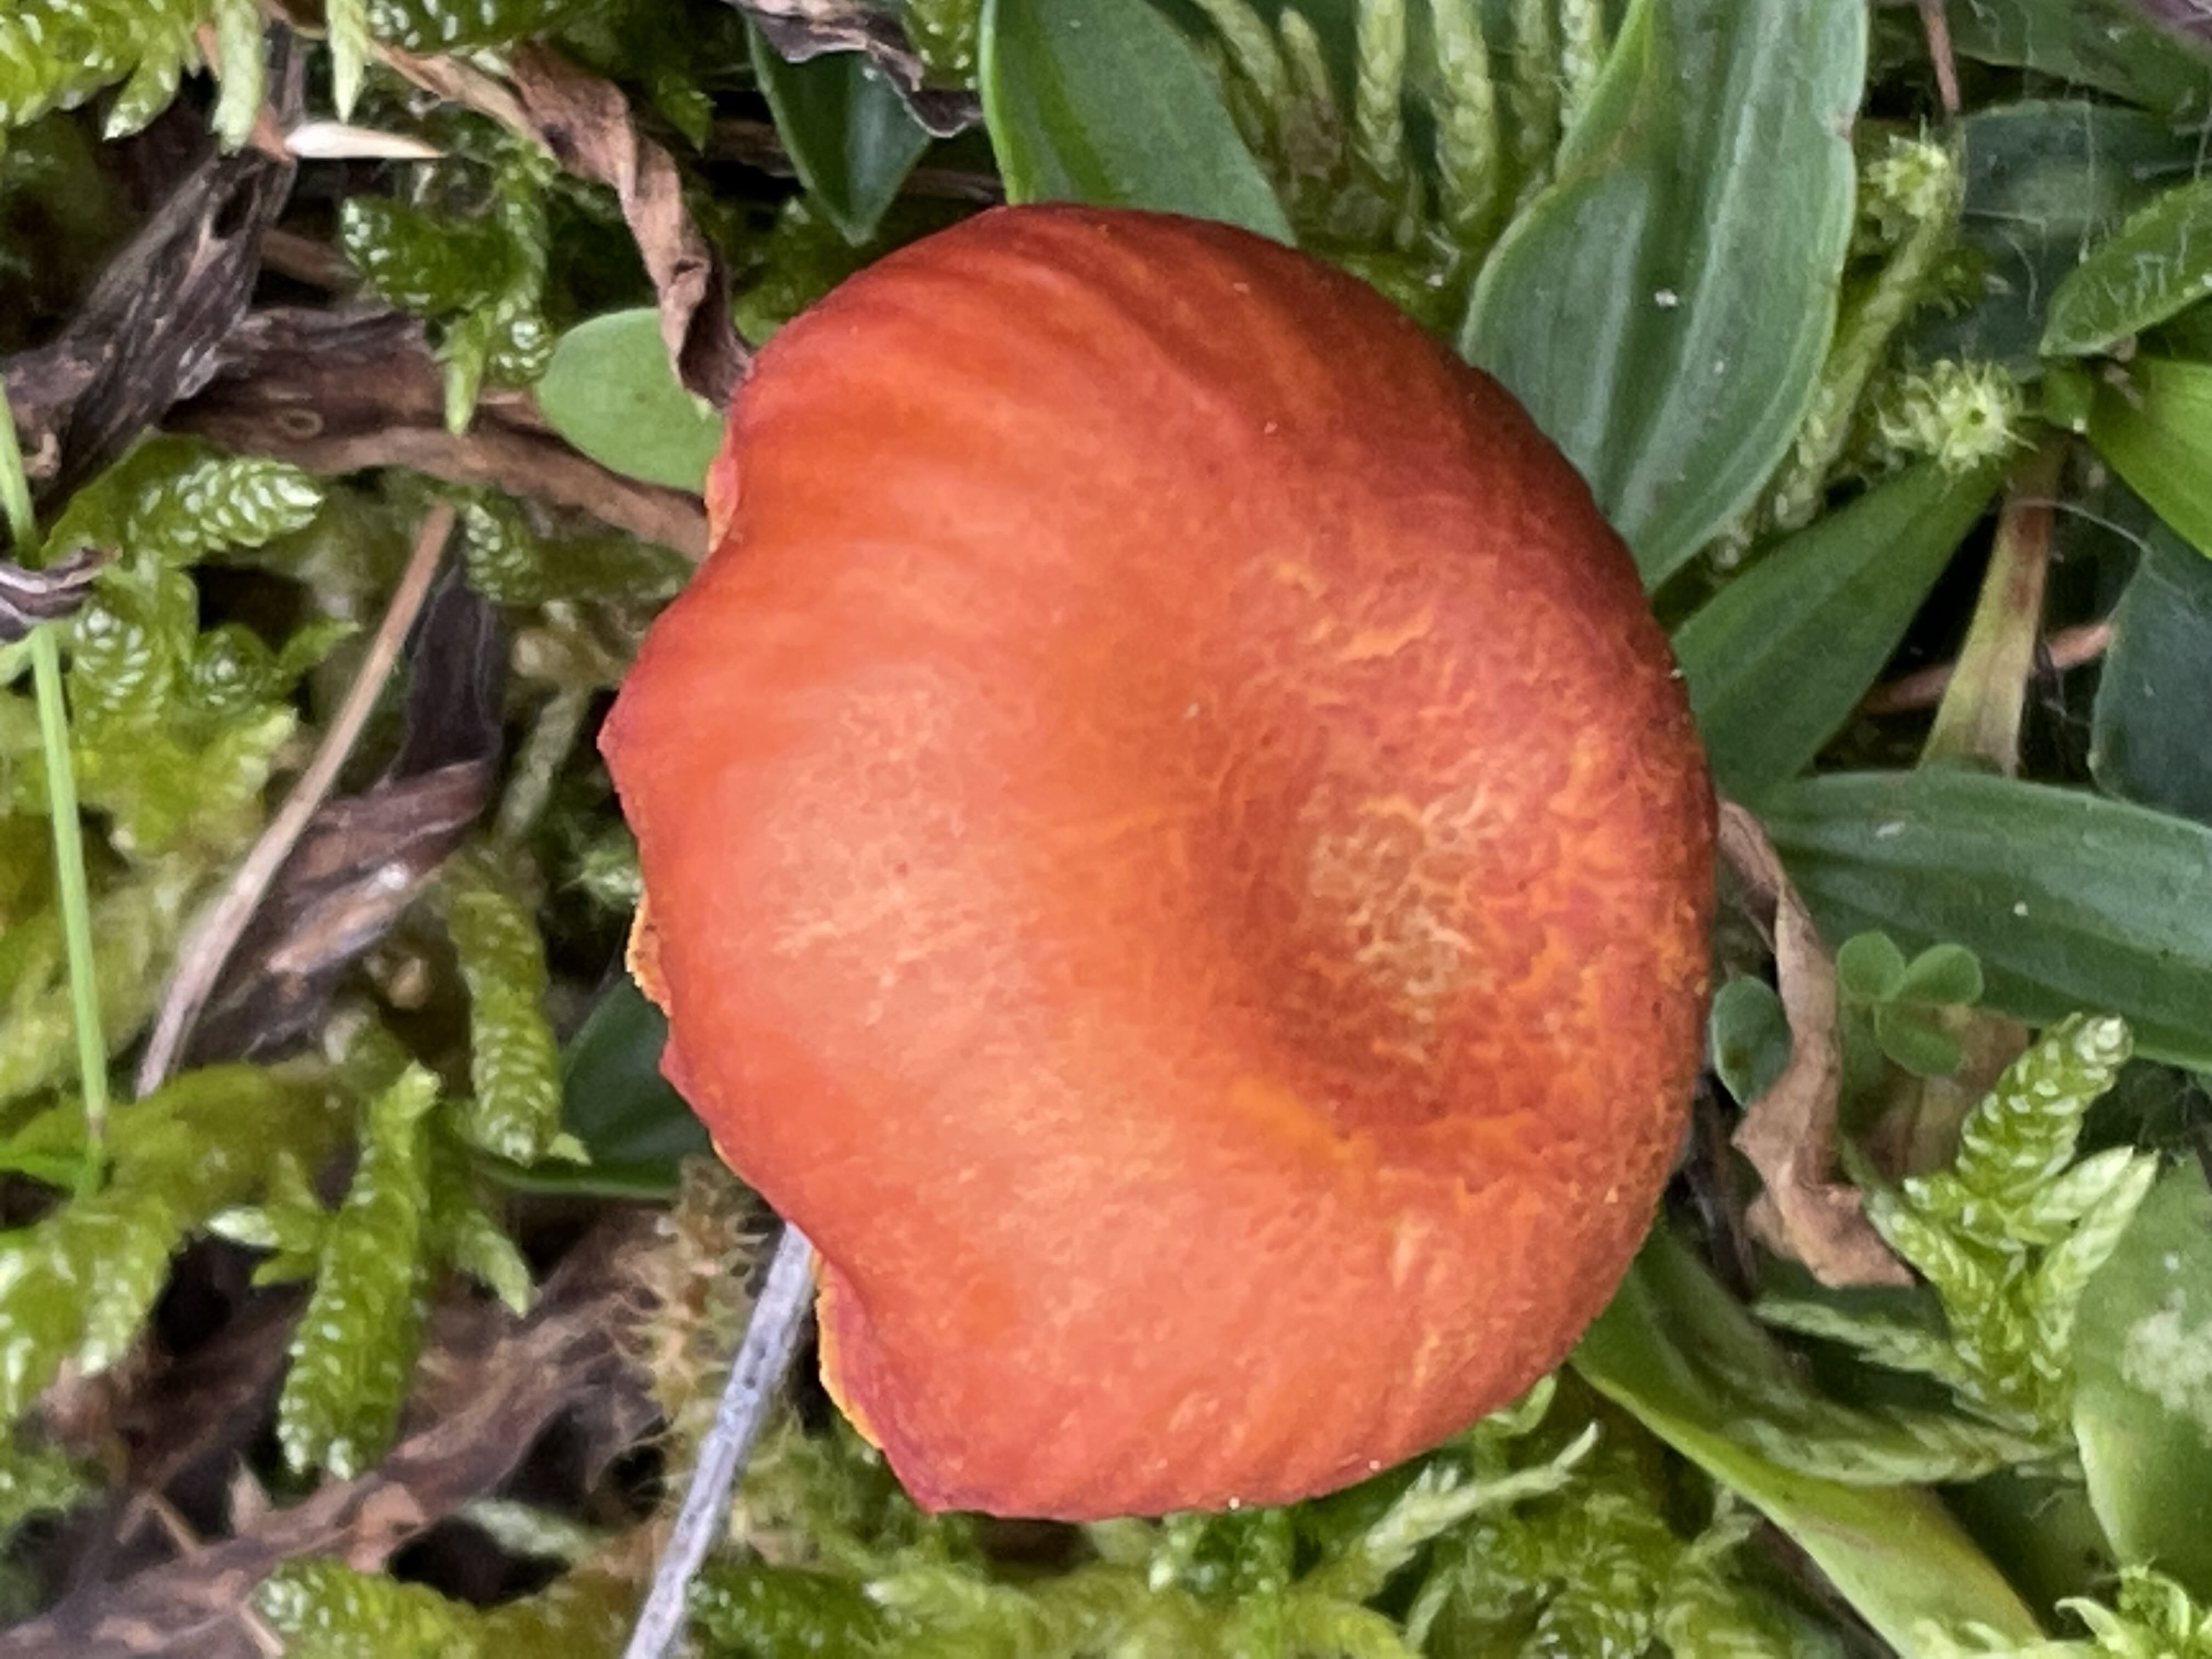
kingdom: Fungi
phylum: Basidiomycota
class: Agaricomycetes
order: Agaricales
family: Hygrophoraceae
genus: Hygrocybe
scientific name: Hygrocybe miniata
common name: mønje-vokshat
